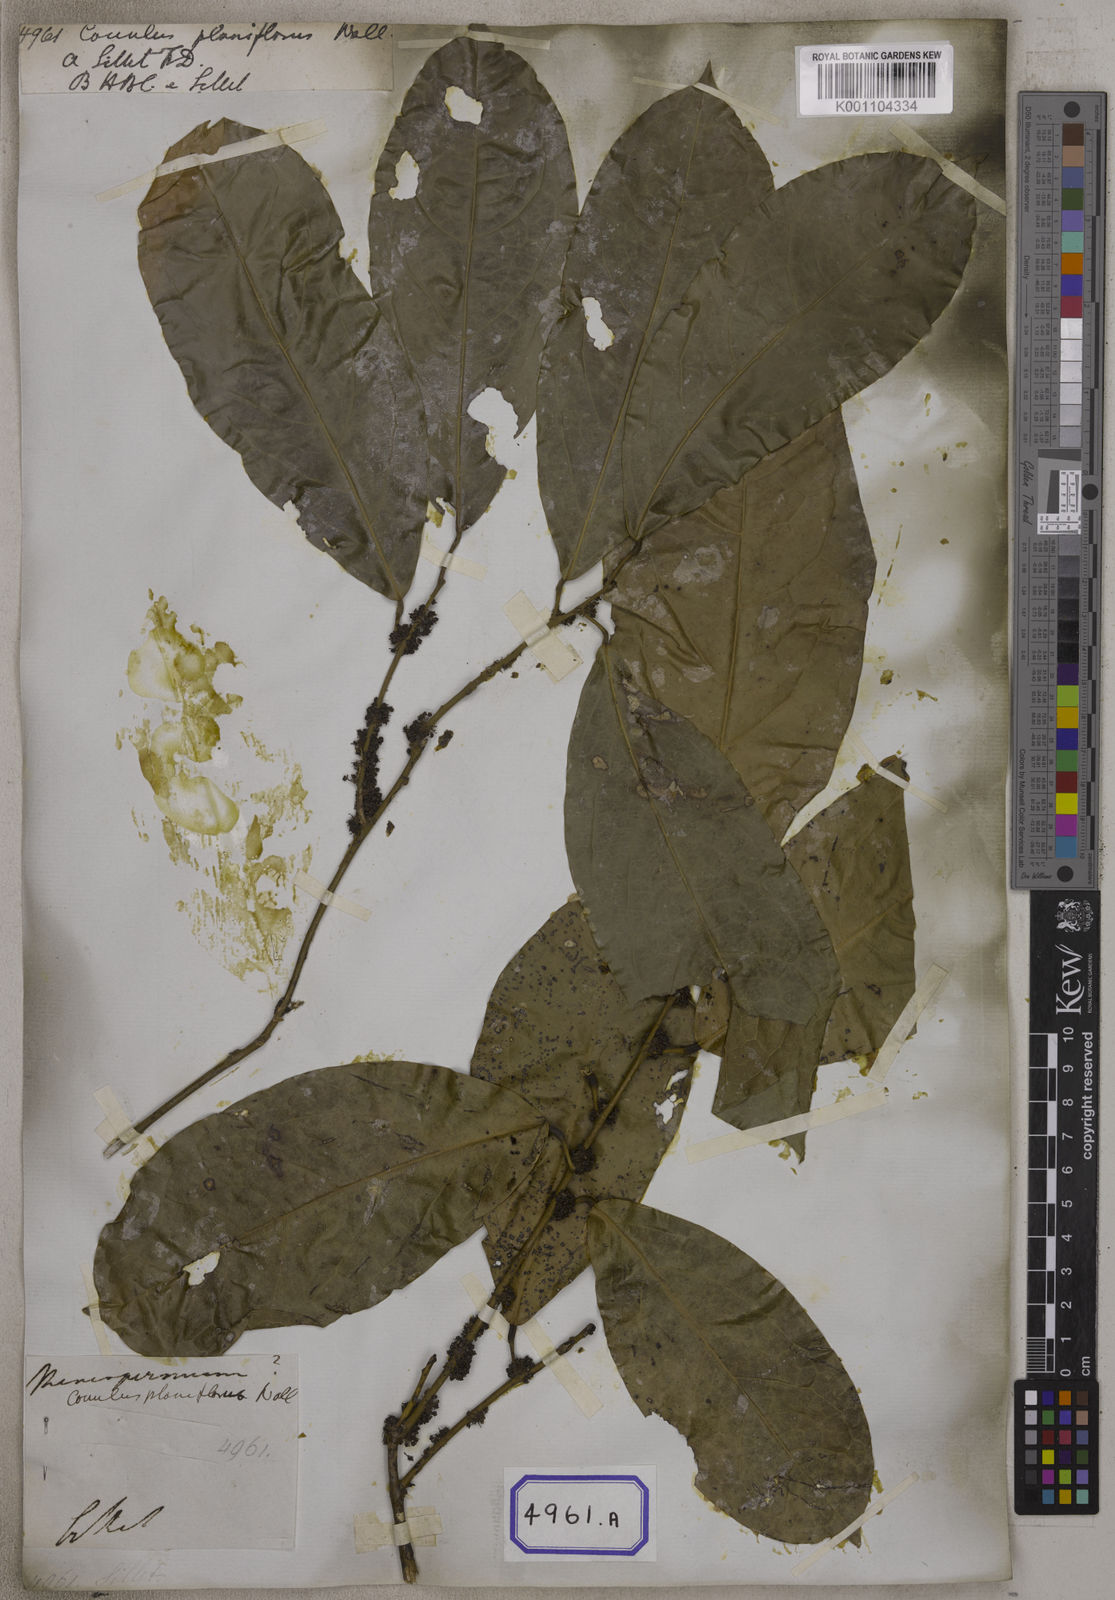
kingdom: Plantae
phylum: Tracheophyta
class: Magnoliopsida
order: Ranunculales
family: Menispermaceae
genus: Pycnarrhena
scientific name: Pycnarrhena pleniflora
